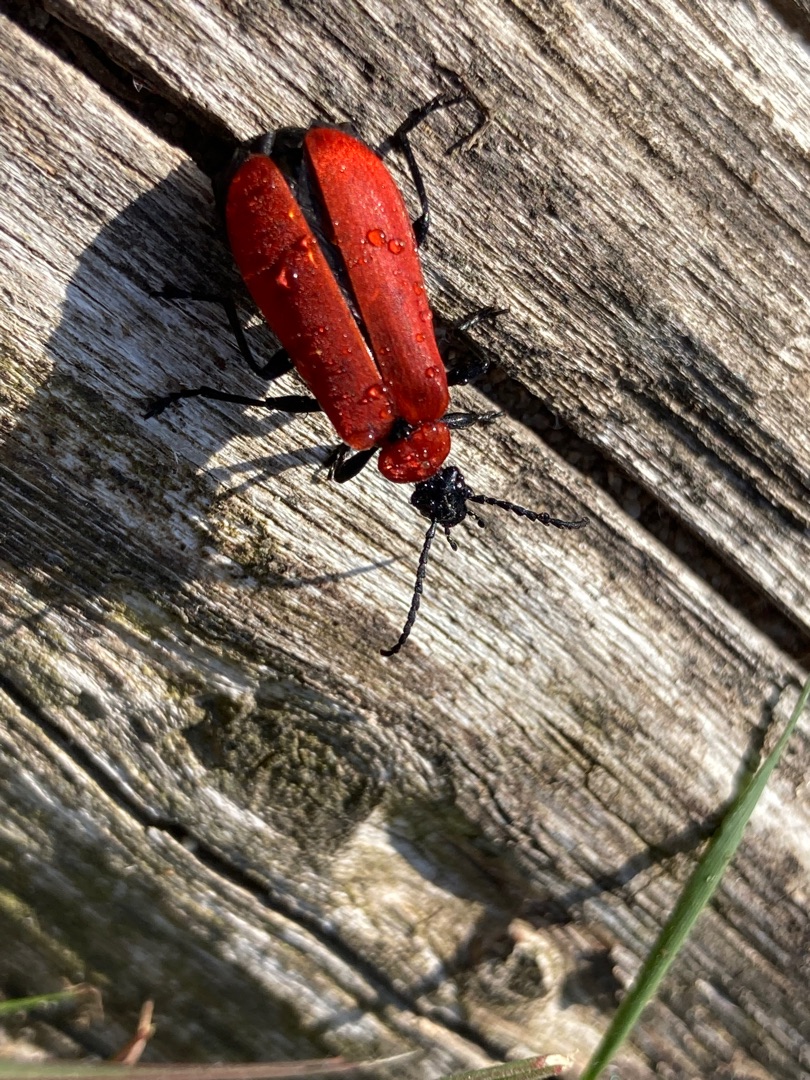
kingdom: Animalia
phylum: Arthropoda
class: Insecta
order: Coleoptera
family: Pyrochroidae
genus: Pyrochroa
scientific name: Pyrochroa coccinea
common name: Sorthovedet kardinalbille
